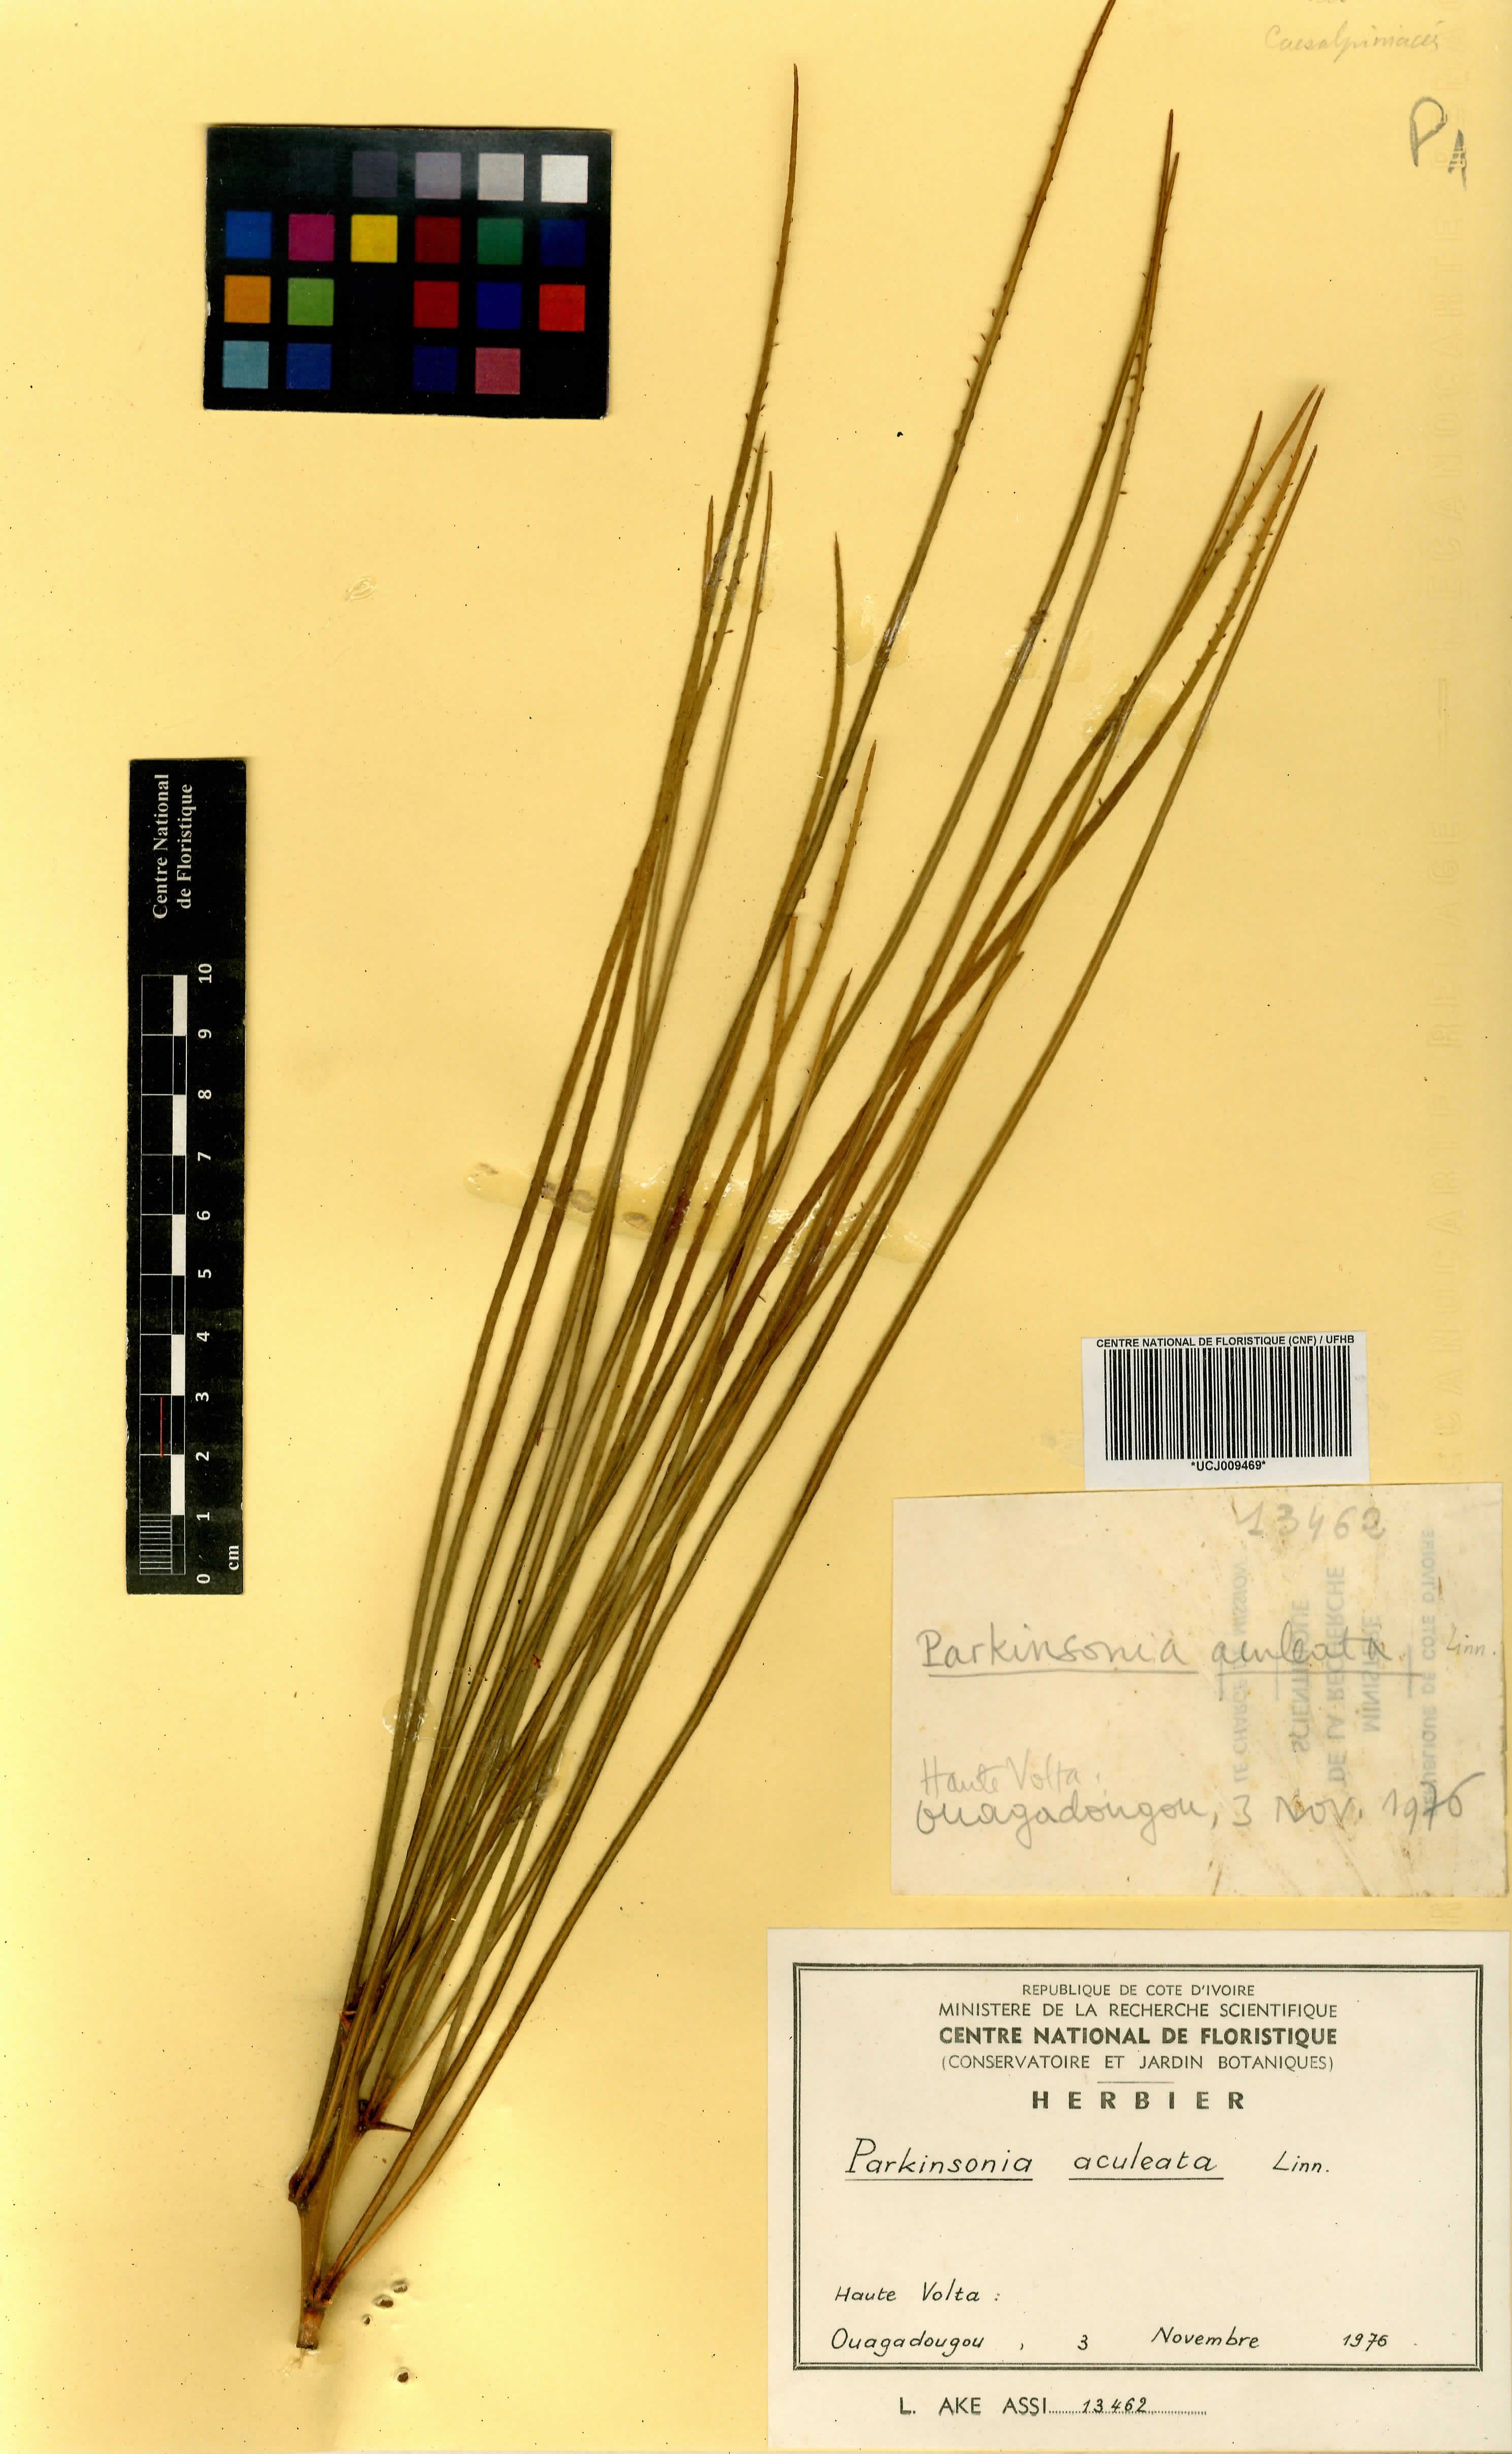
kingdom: Plantae
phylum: Tracheophyta
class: Magnoliopsida
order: Fabales
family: Fabaceae
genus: Parkinsonia
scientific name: Parkinsonia aculeata
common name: Jerusalem thorn
